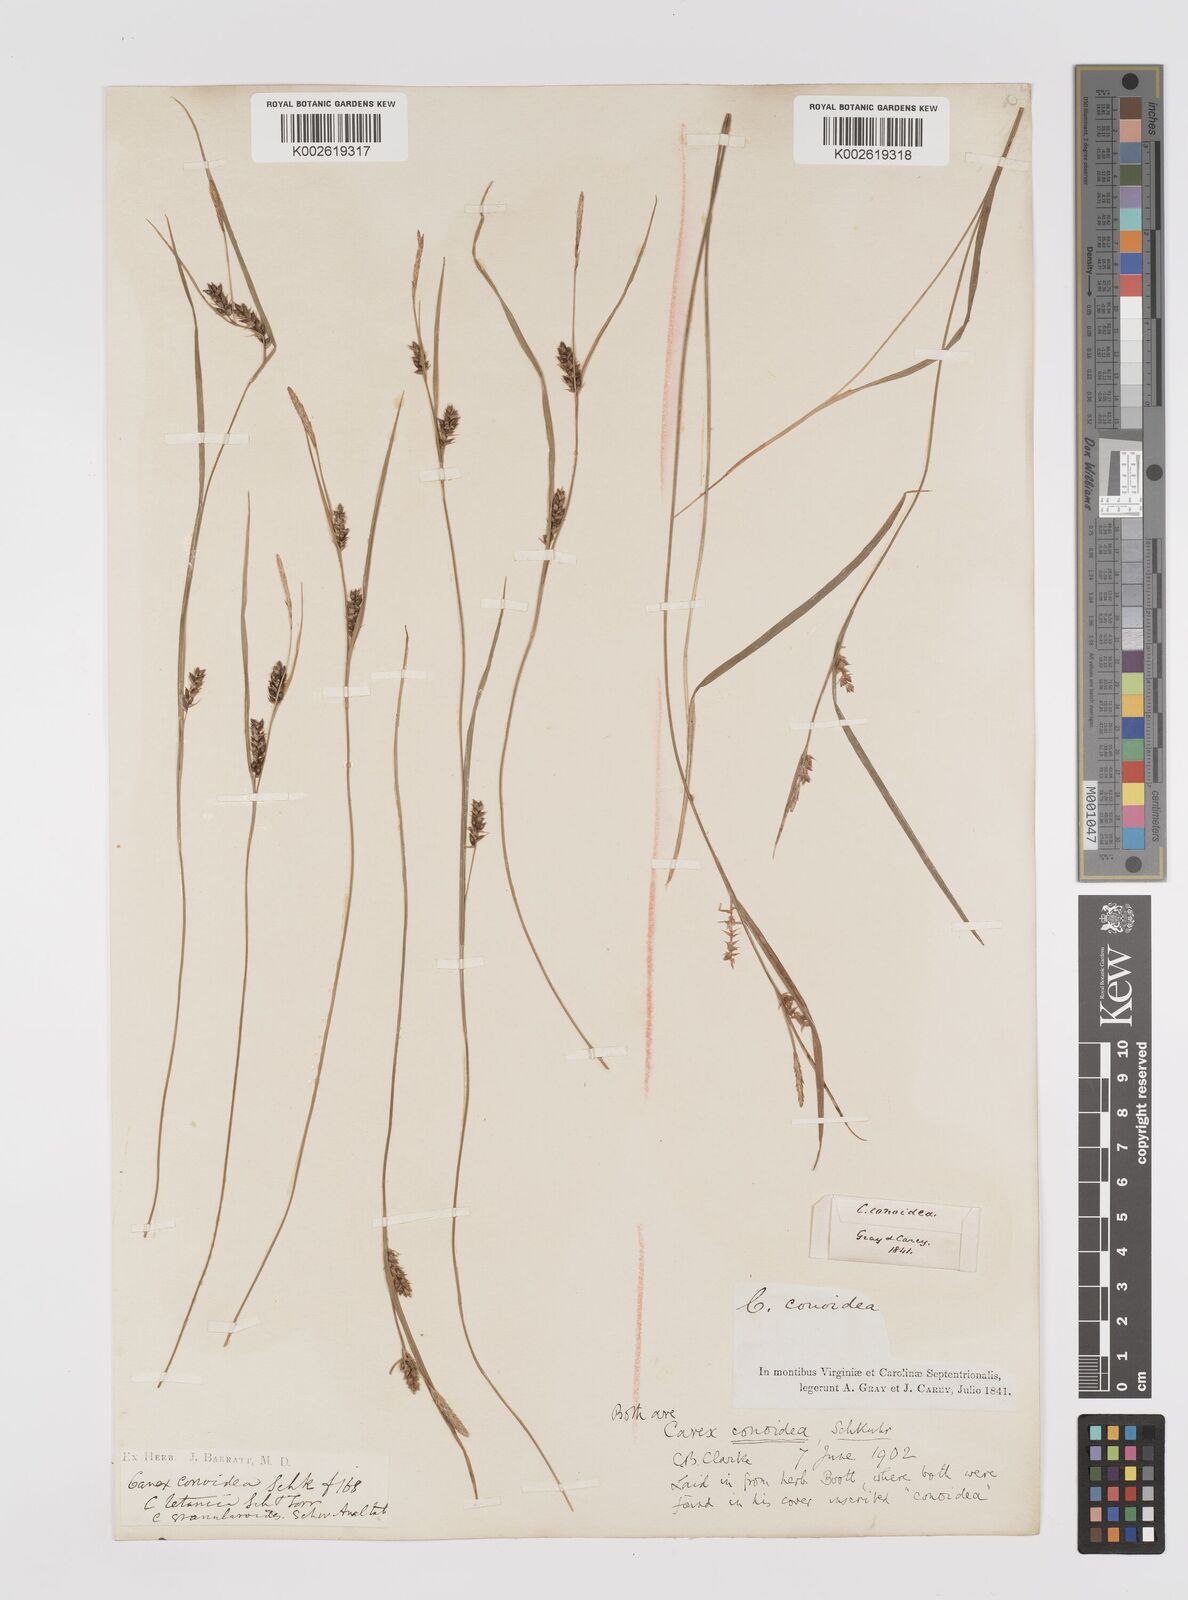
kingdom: Plantae
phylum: Tracheophyta
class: Liliopsida
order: Poales
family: Cyperaceae
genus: Carex
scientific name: Carex conoidea
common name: Cone shaped sedge
